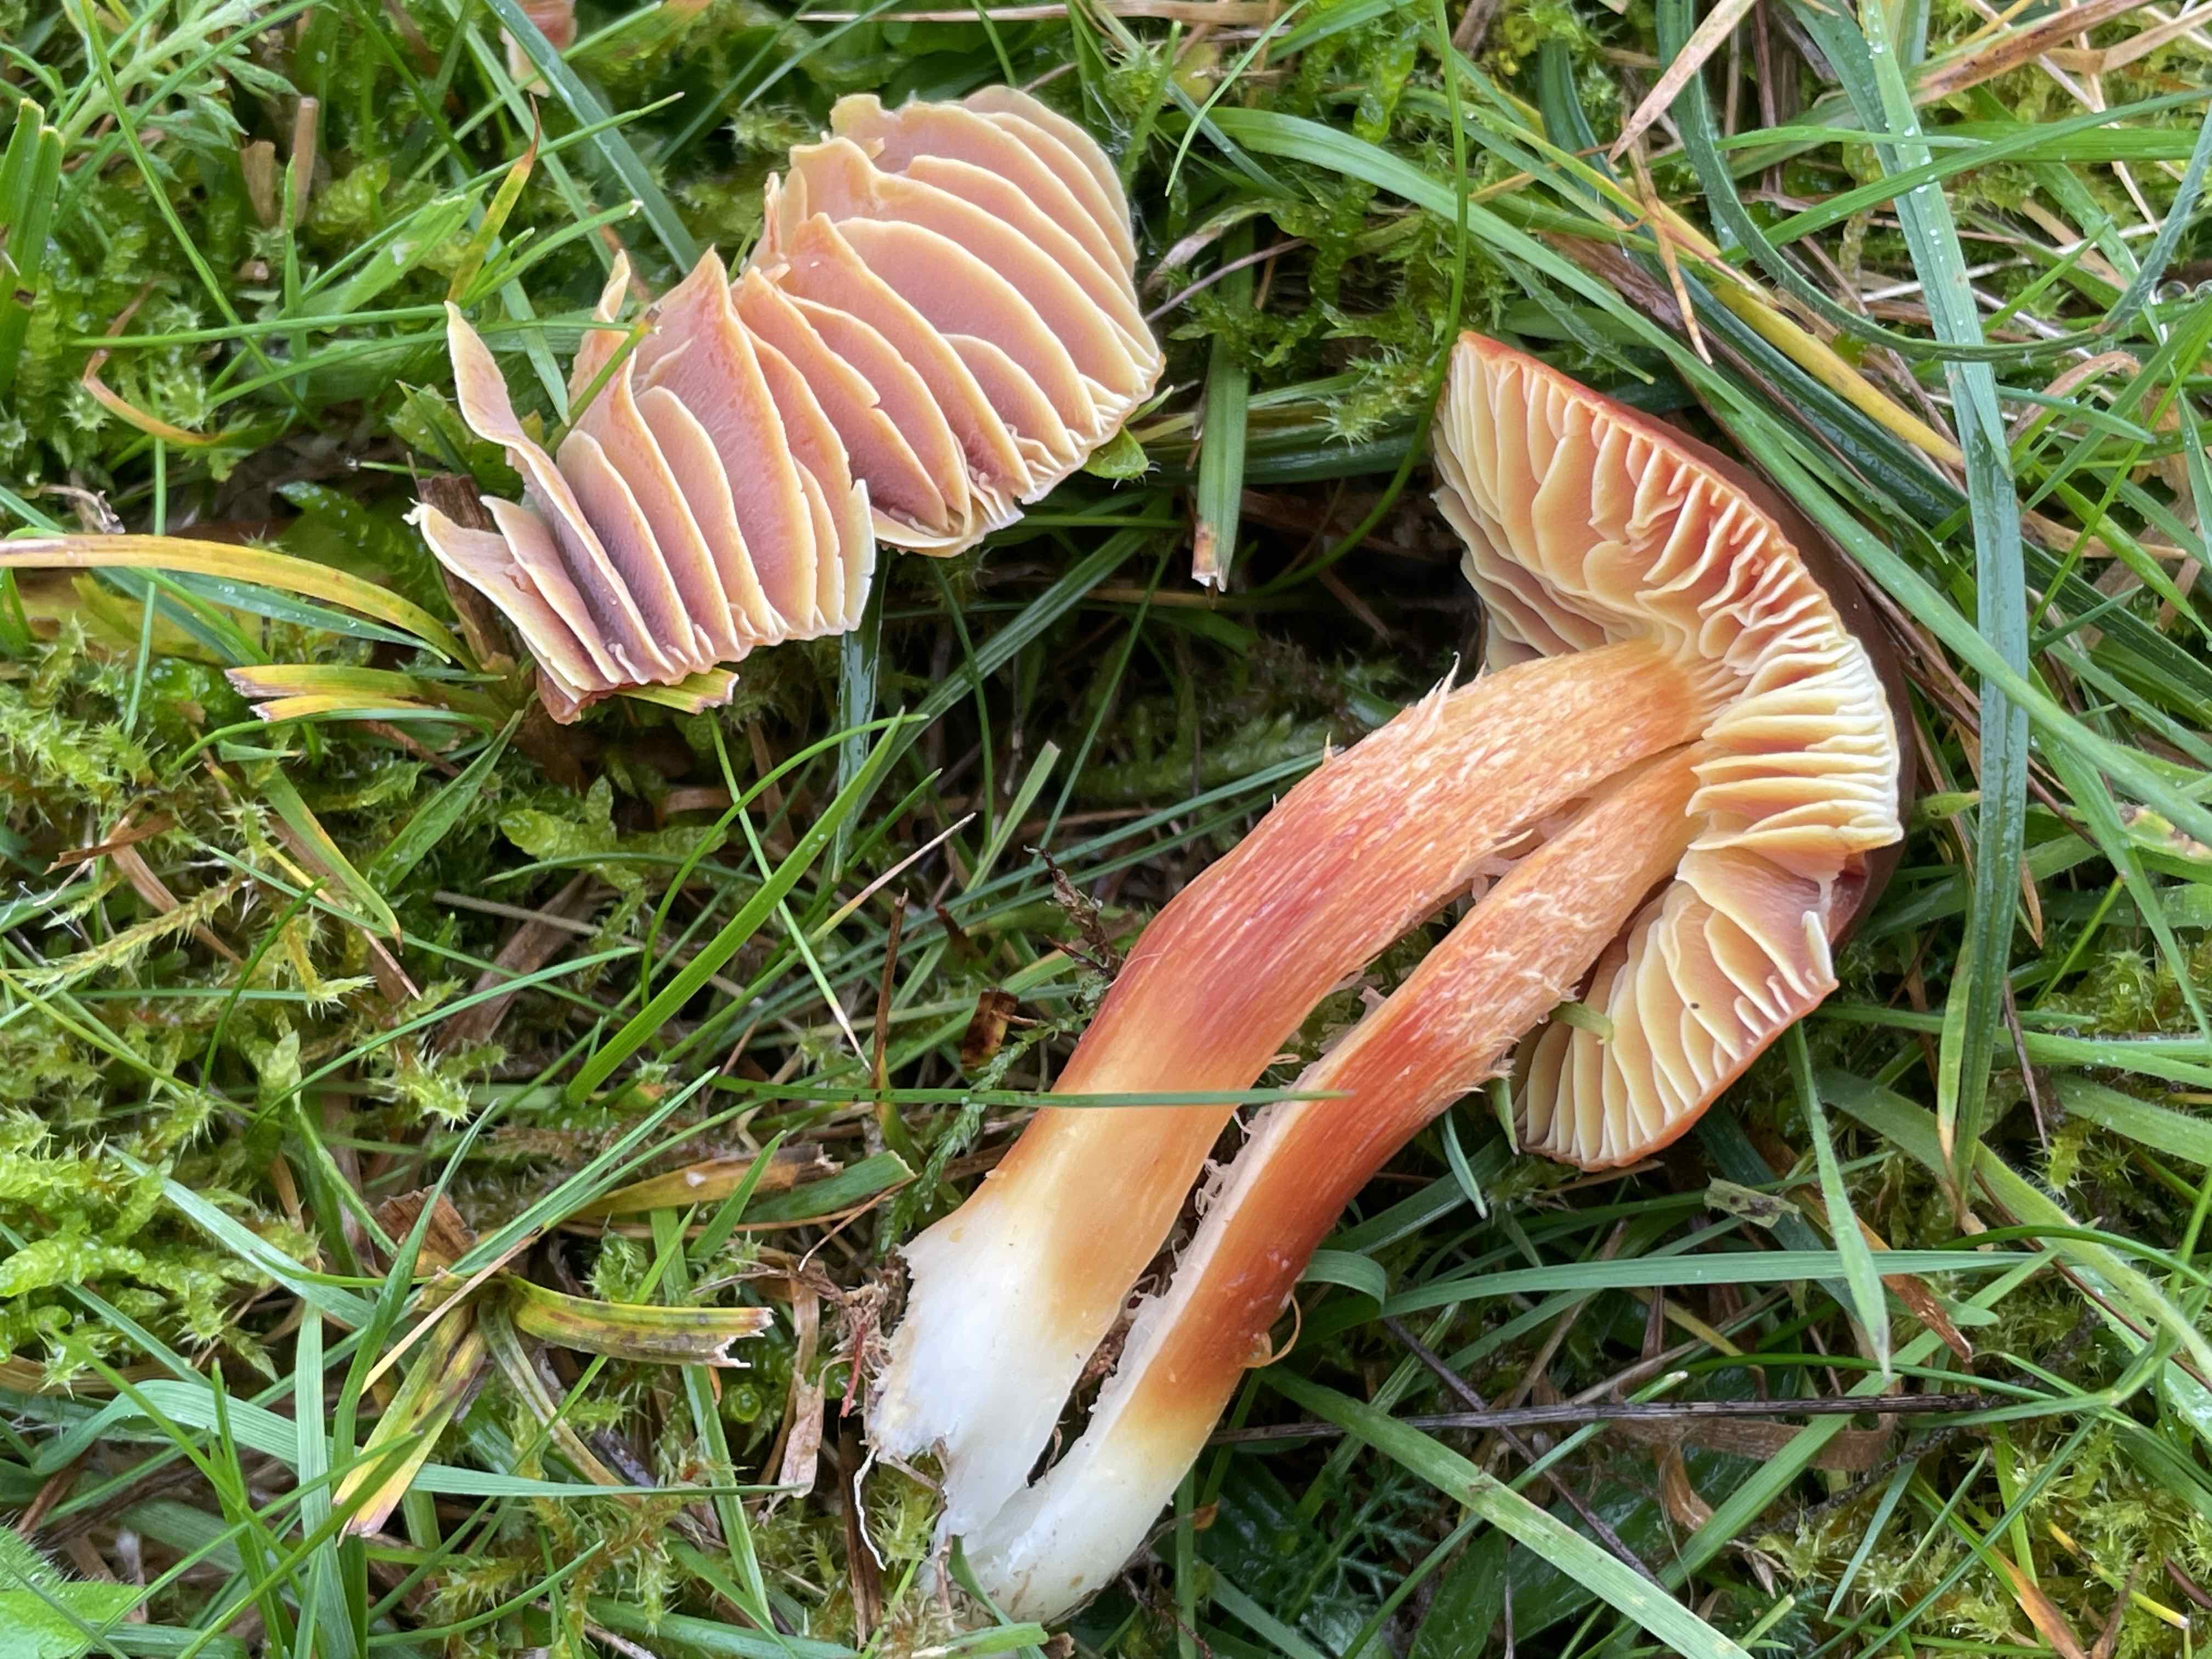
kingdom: Fungi
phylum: Basidiomycota
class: Agaricomycetes
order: Agaricales
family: Hygrophoraceae
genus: Hygrocybe
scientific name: Hygrocybe punicea
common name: skarlagen-vokshat
